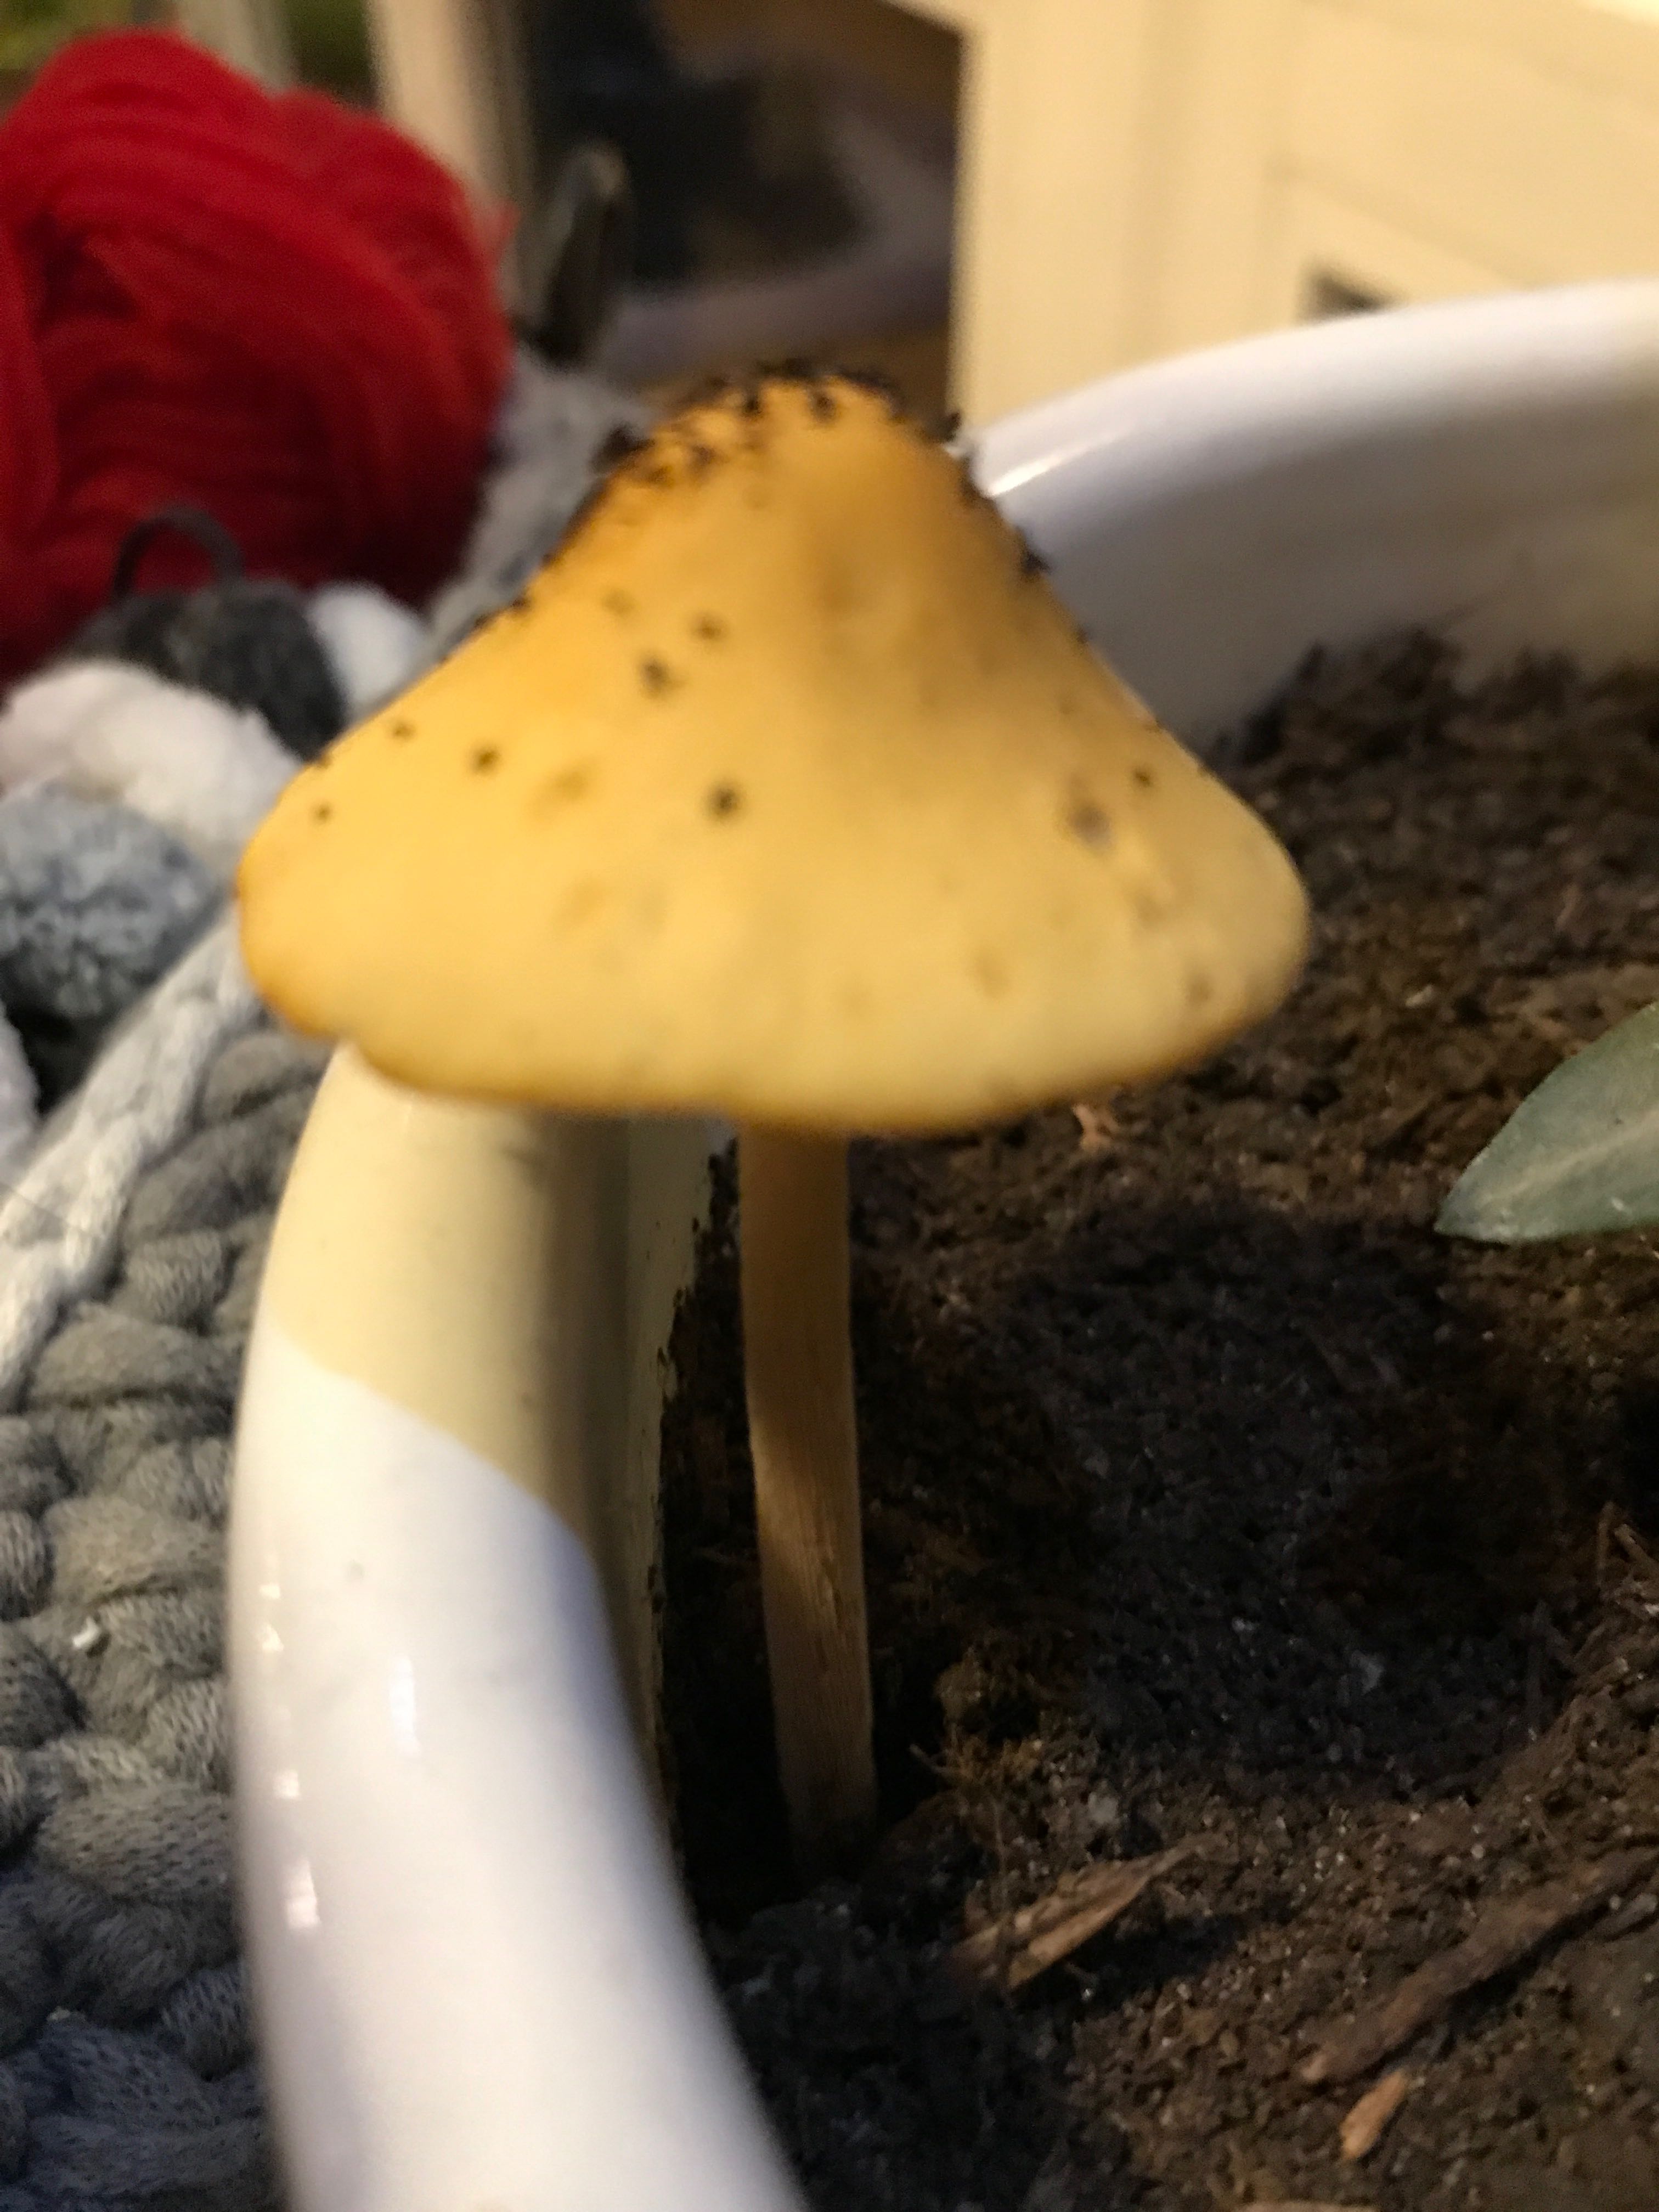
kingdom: Fungi
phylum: Basidiomycota
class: Agaricomycetes
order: Agaricales
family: Bolbitiaceae
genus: Conocybe
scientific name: Conocybe
